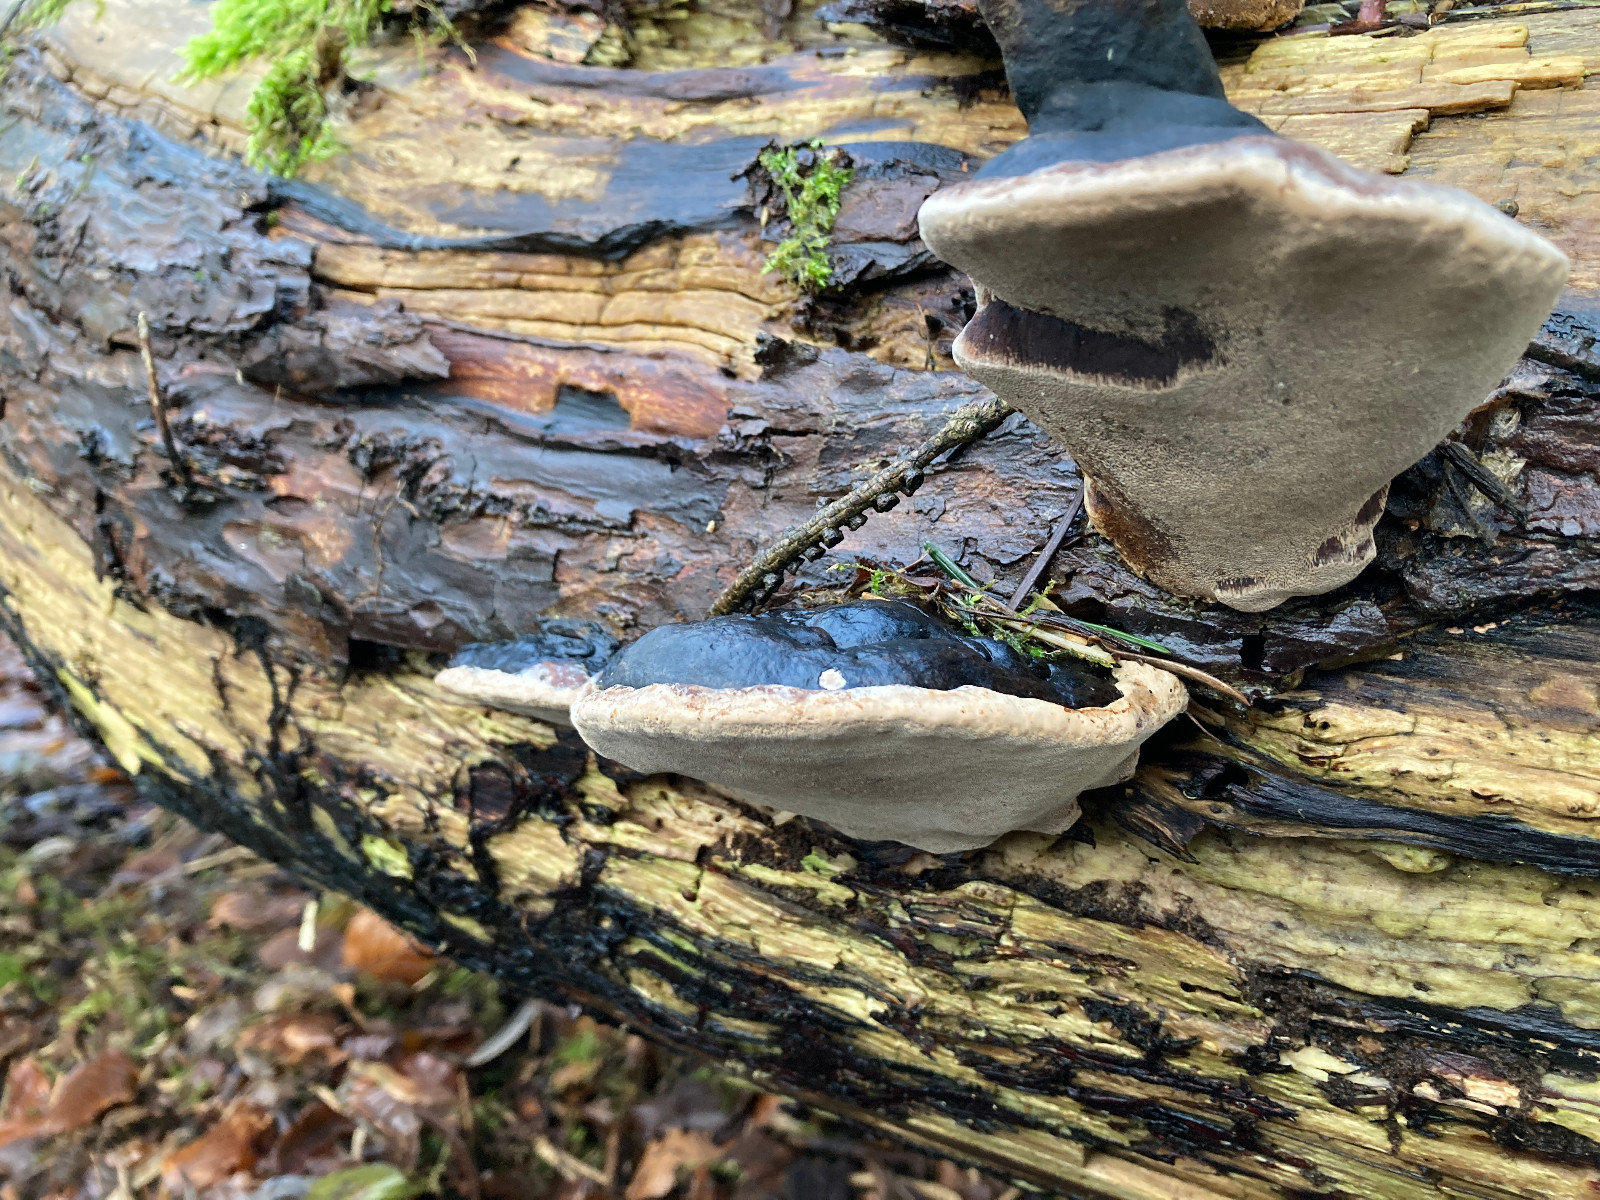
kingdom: Fungi
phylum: Basidiomycota
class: Agaricomycetes
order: Hymenochaetales
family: Hymenochaetaceae
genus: Phellinus
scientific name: Phellinus igniarius
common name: almindelig ildporesvamp
